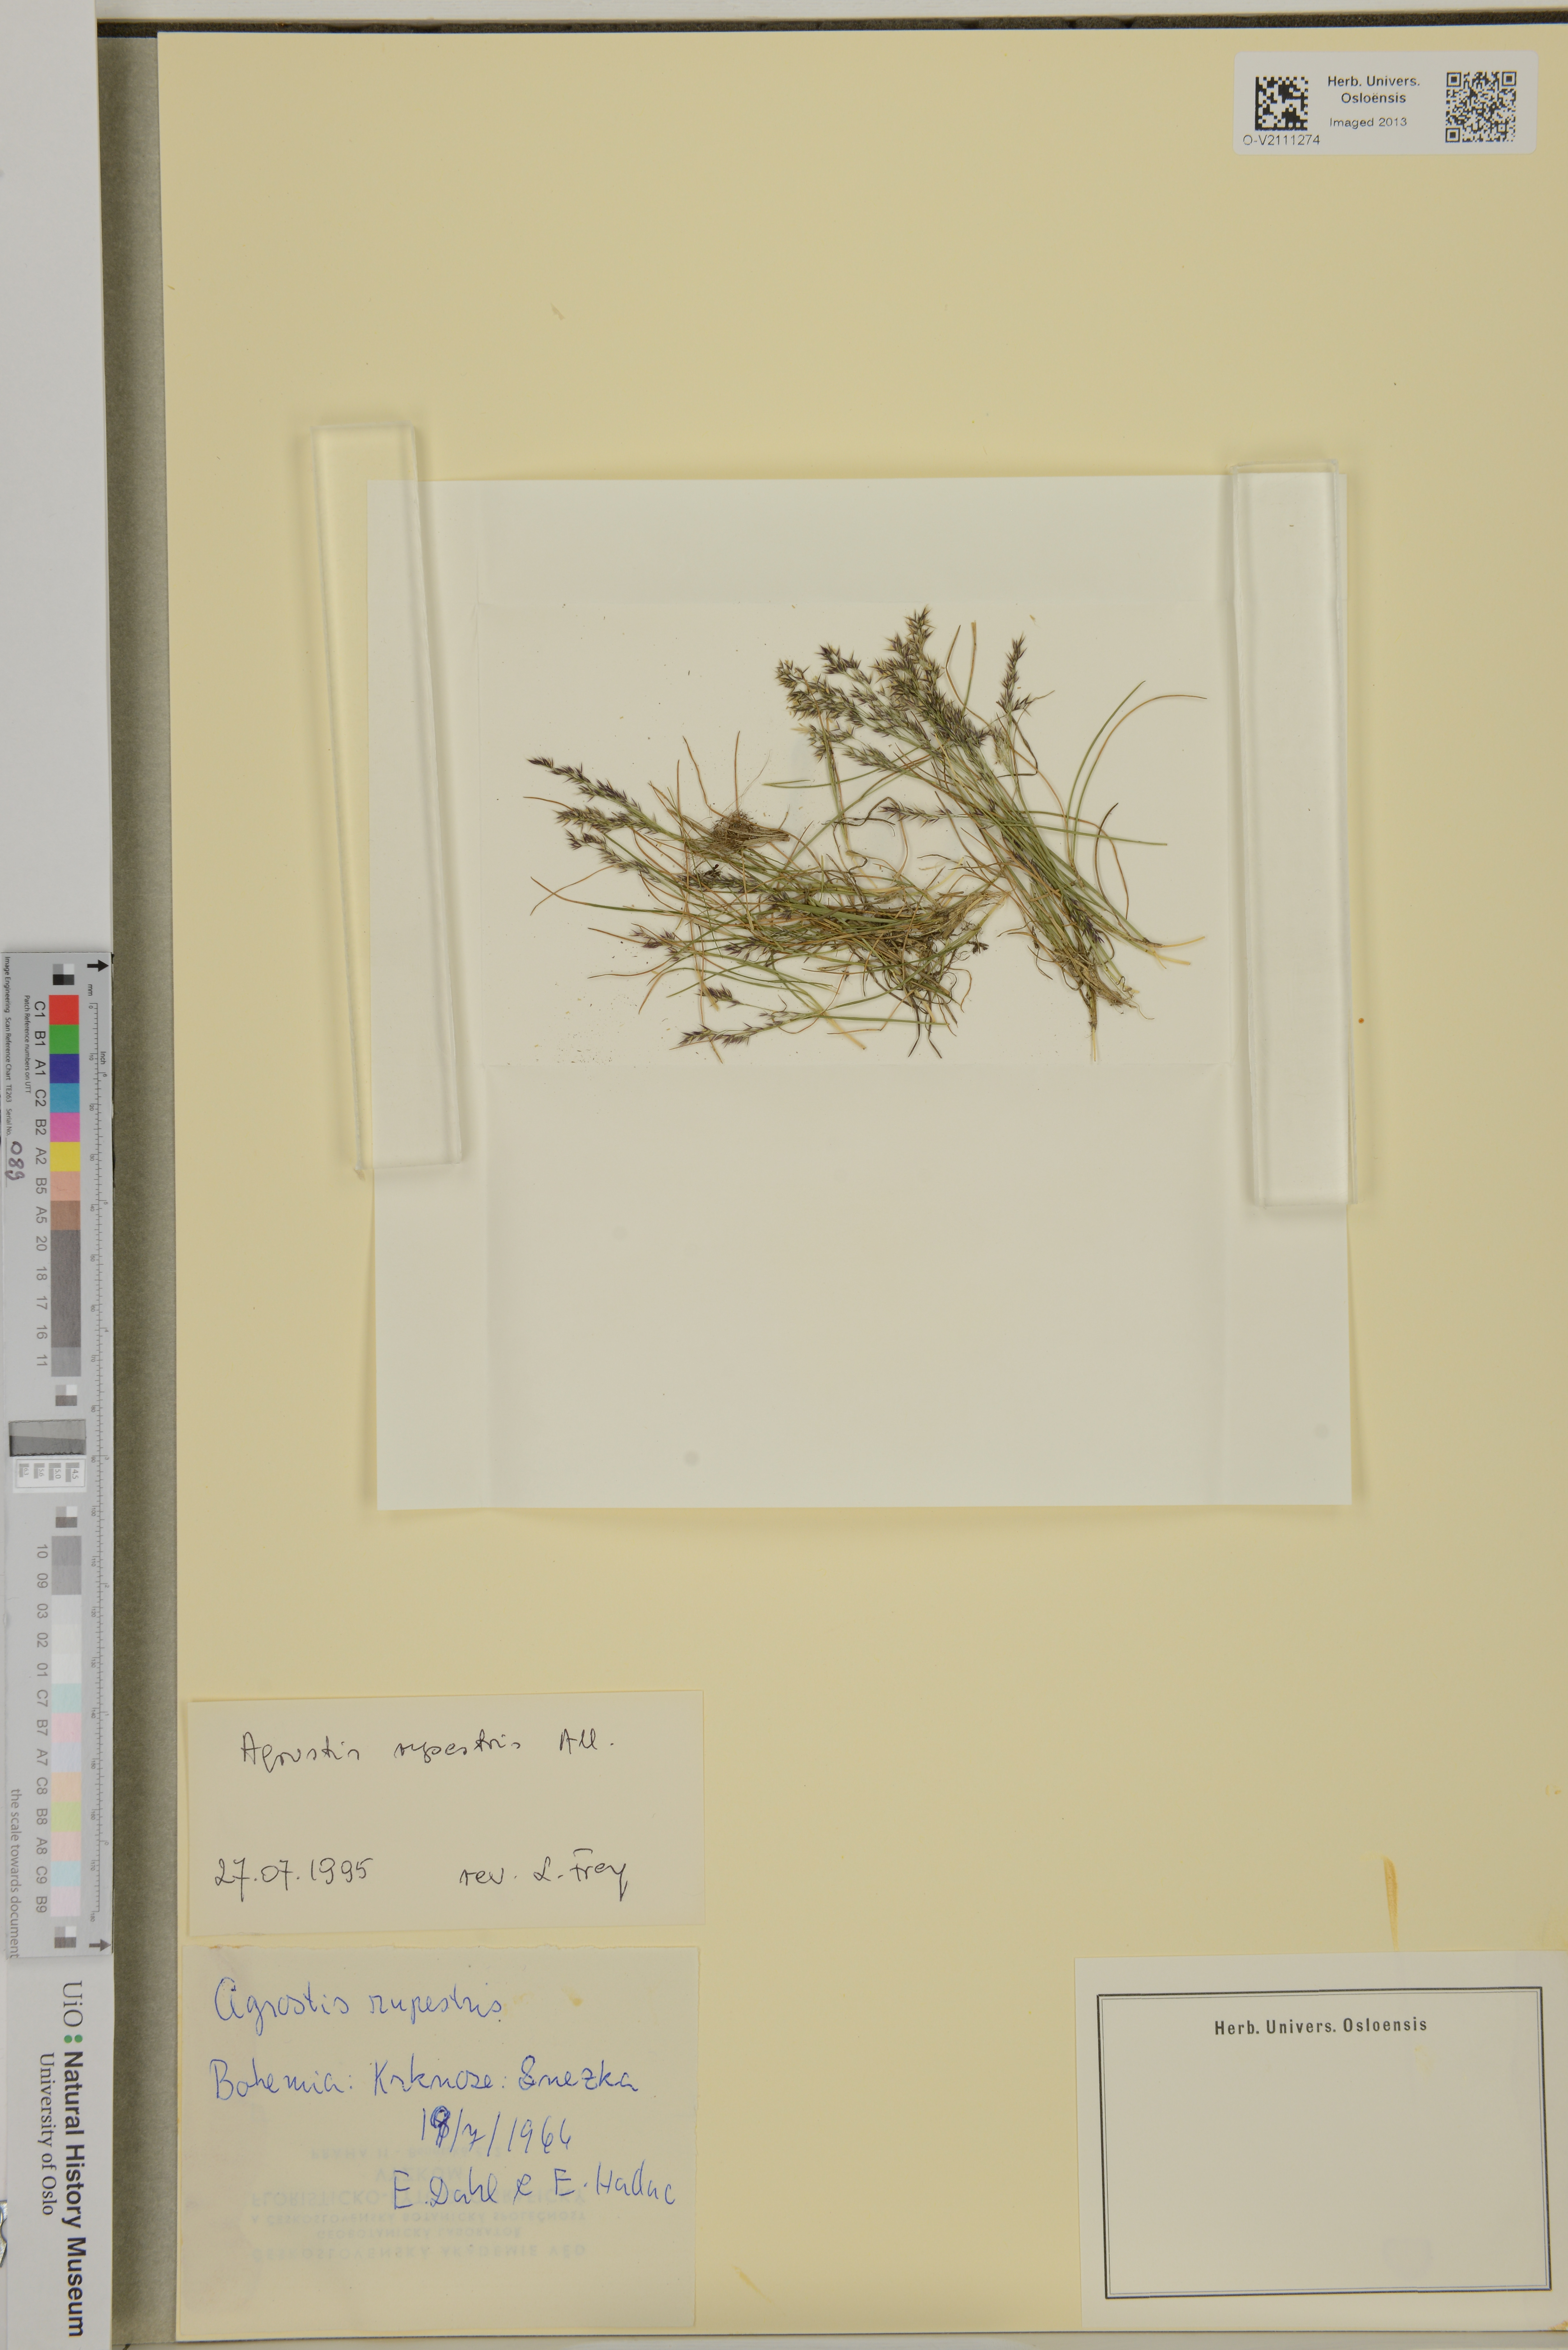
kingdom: Plantae
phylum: Tracheophyta
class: Liliopsida
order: Poales
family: Poaceae
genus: Agrostis
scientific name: Agrostis rupestris
